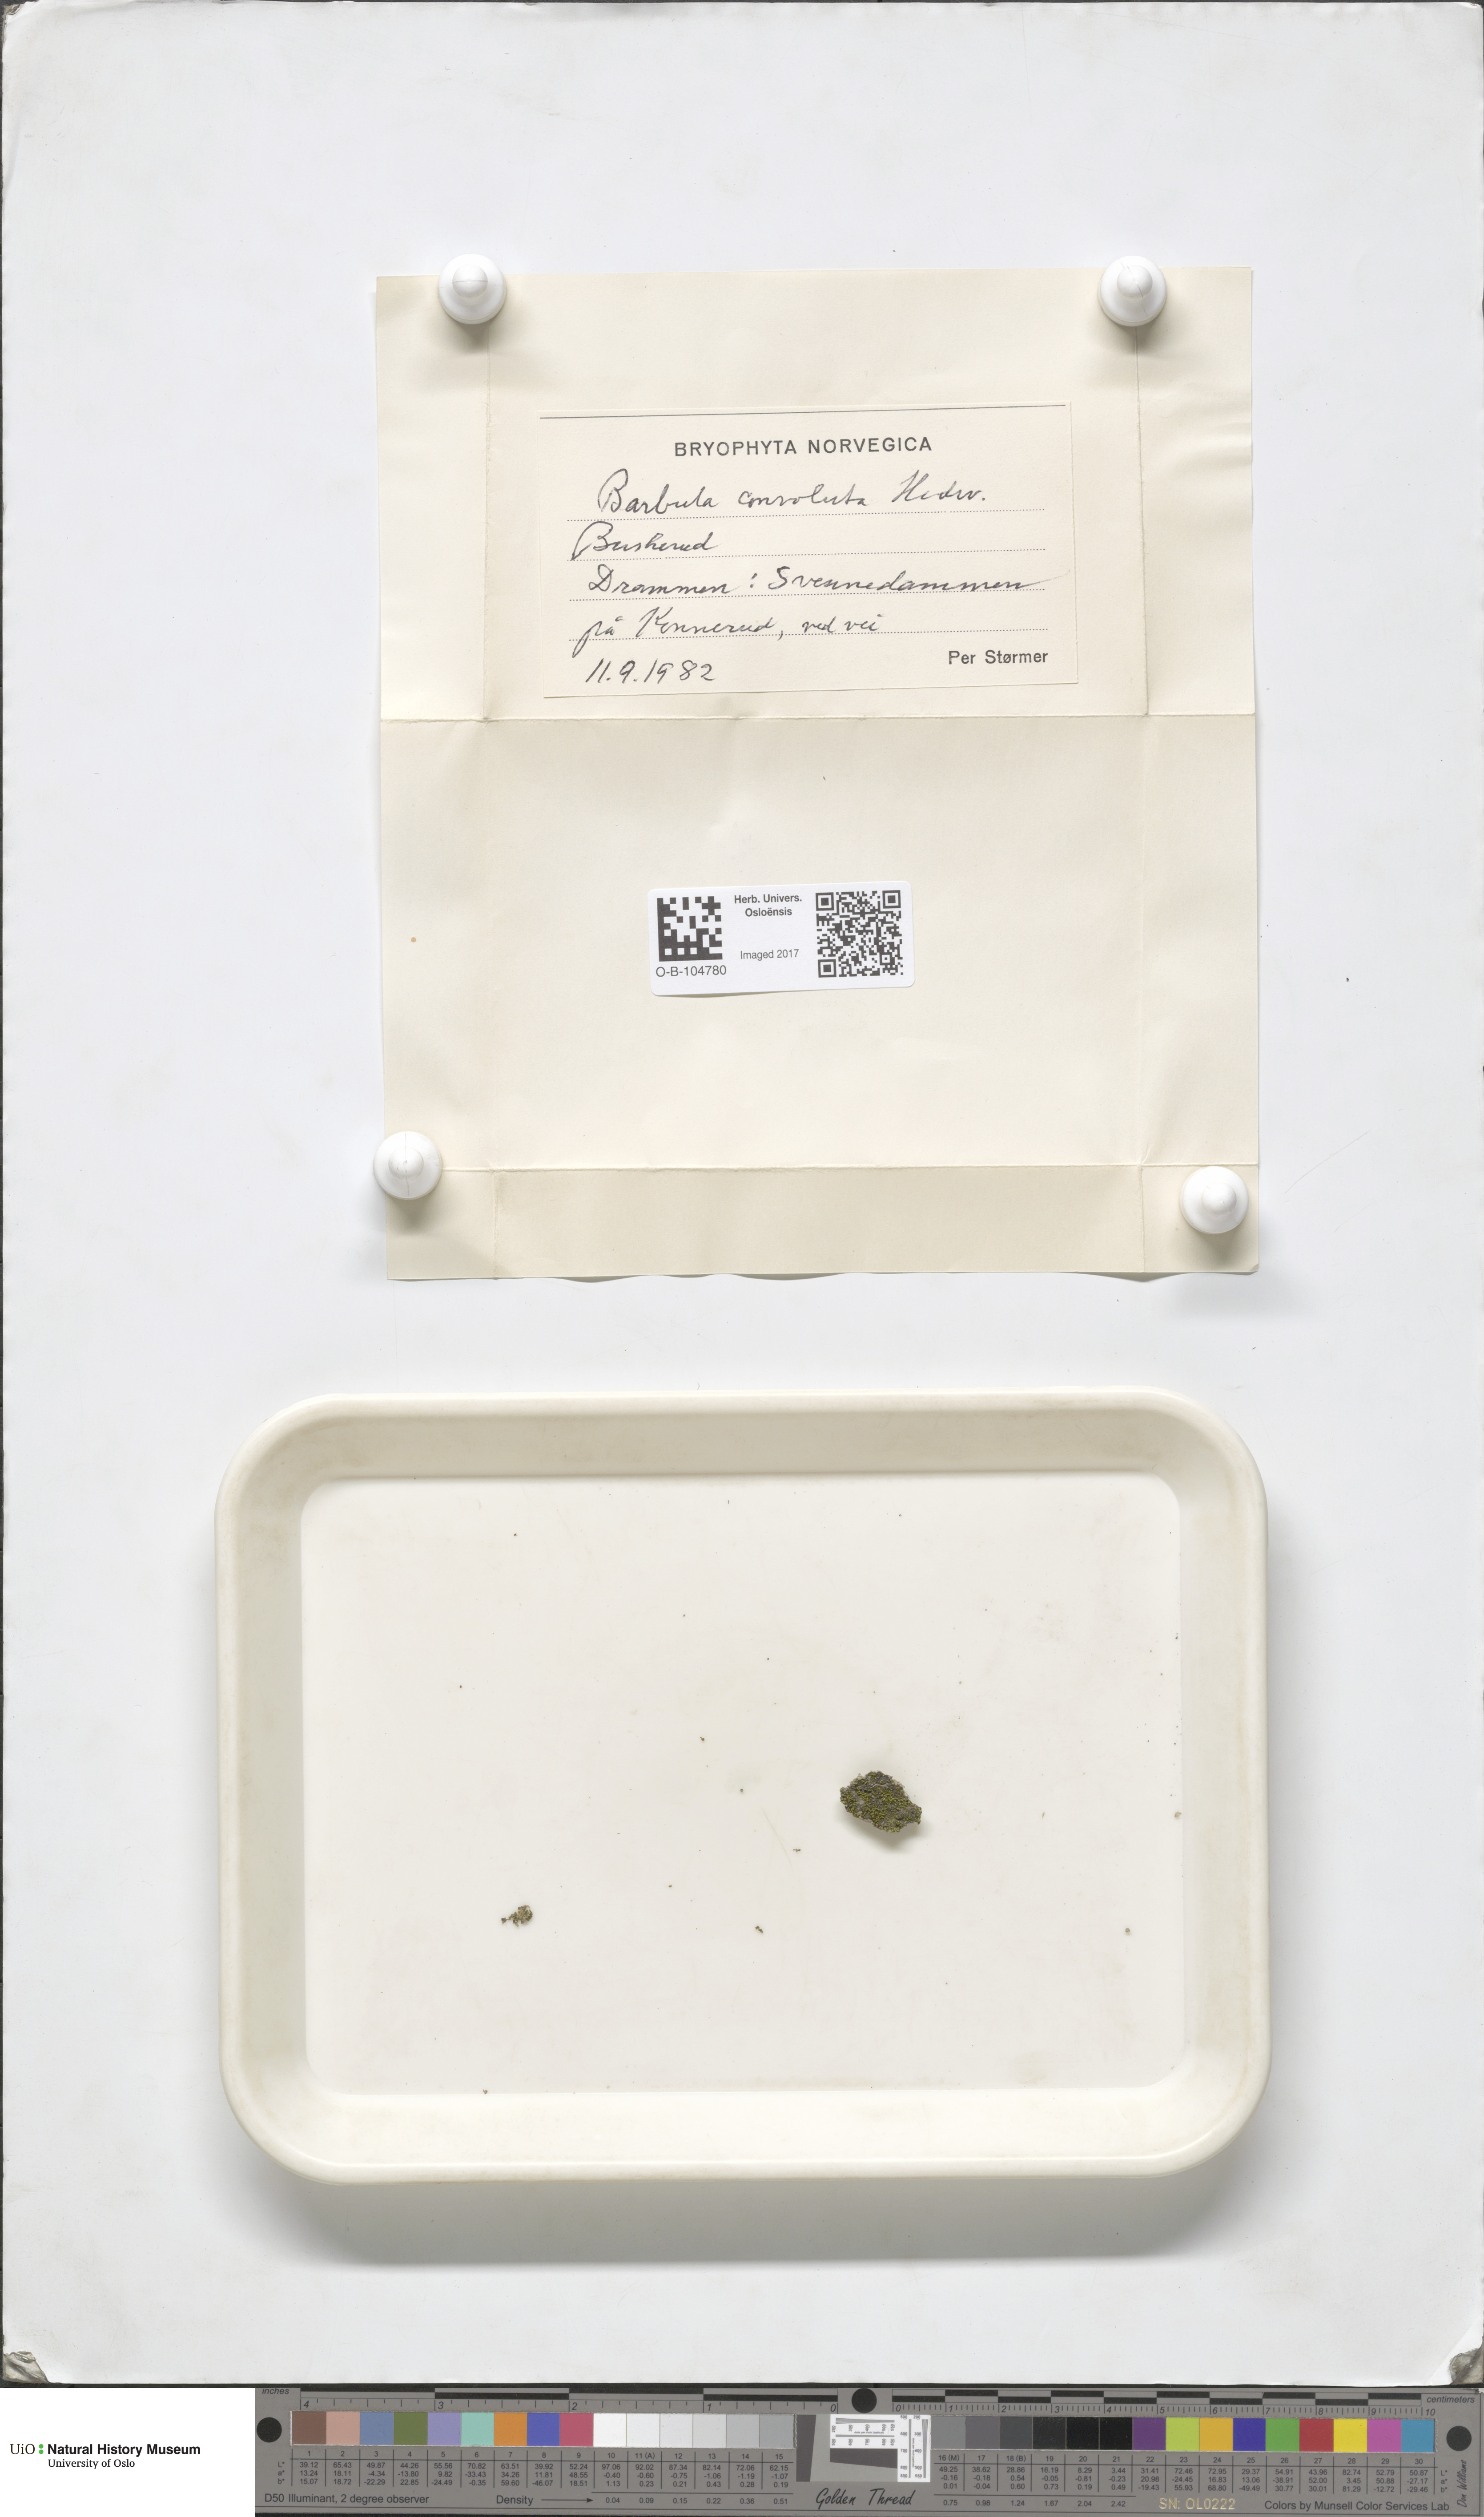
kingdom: Plantae
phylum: Bryophyta
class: Bryopsida
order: Pottiales
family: Pottiaceae
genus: Streblotrichum
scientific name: Streblotrichum convolutum
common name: Lesser bird's-claw beard-moss
